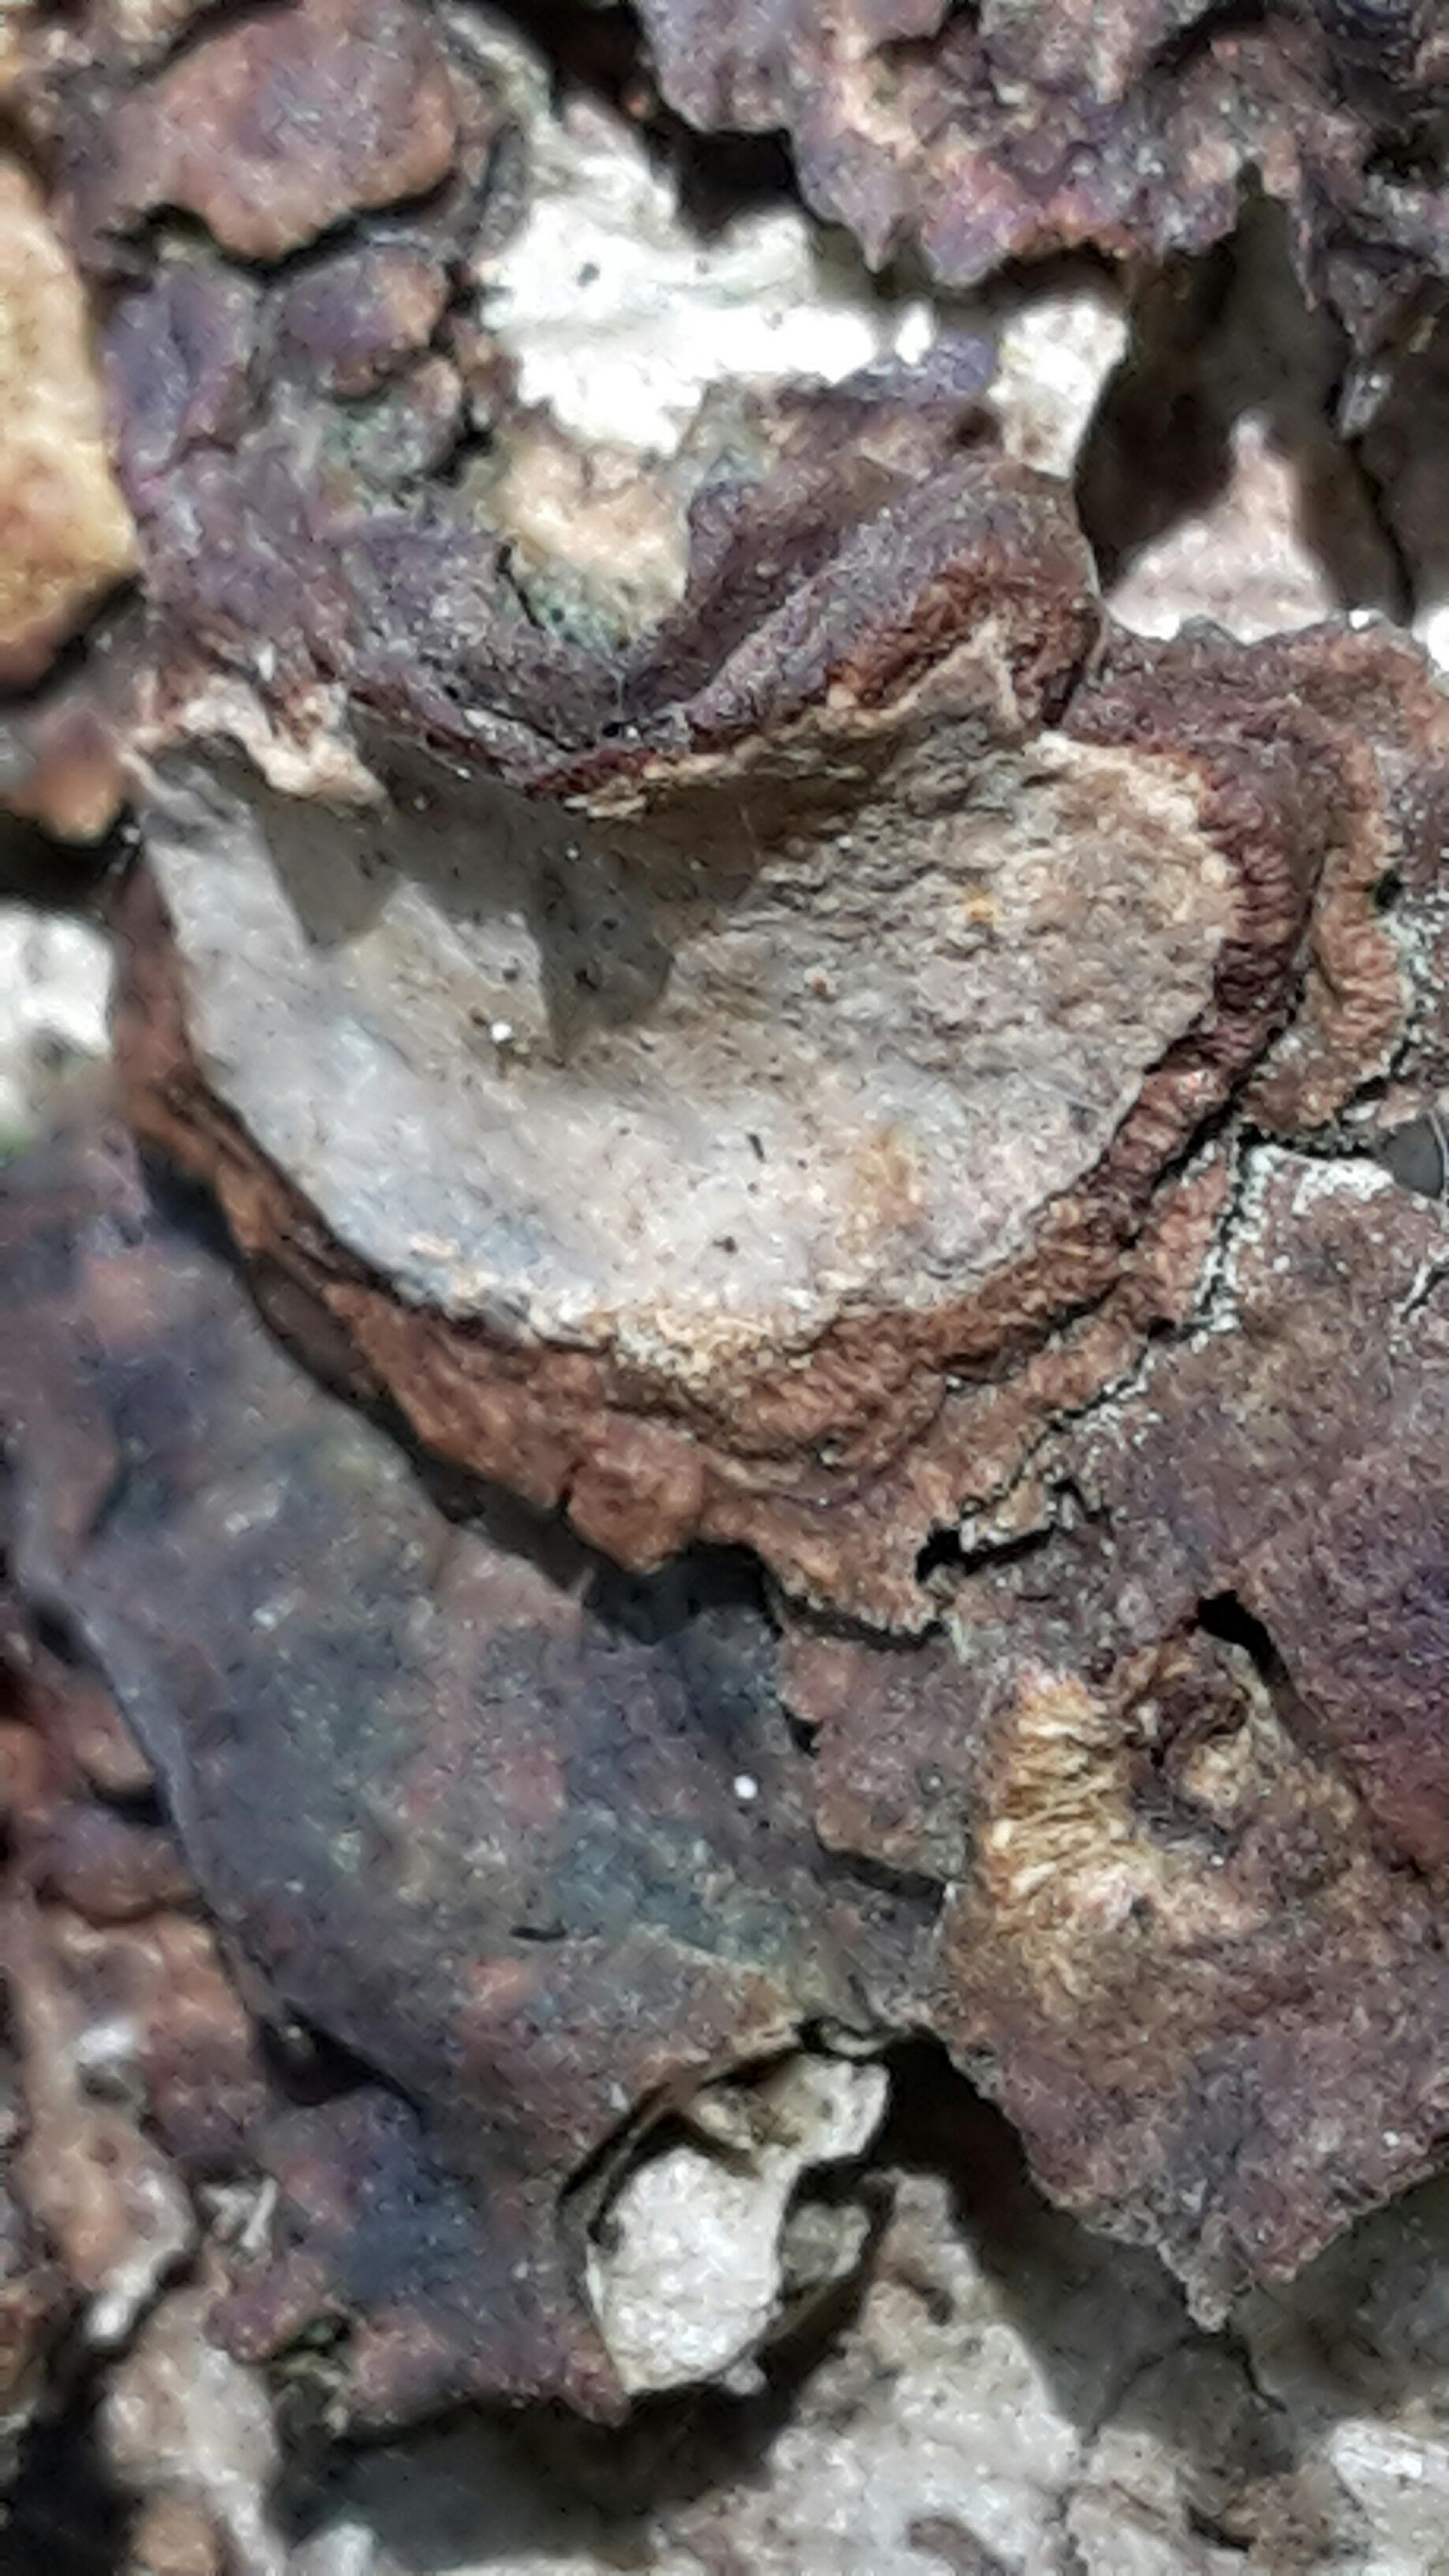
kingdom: Fungi
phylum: Basidiomycota
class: Agaricomycetes
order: Russulales
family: Stereaceae
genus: Stereum
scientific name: Stereum rugosum
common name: rynket lædersvamp
